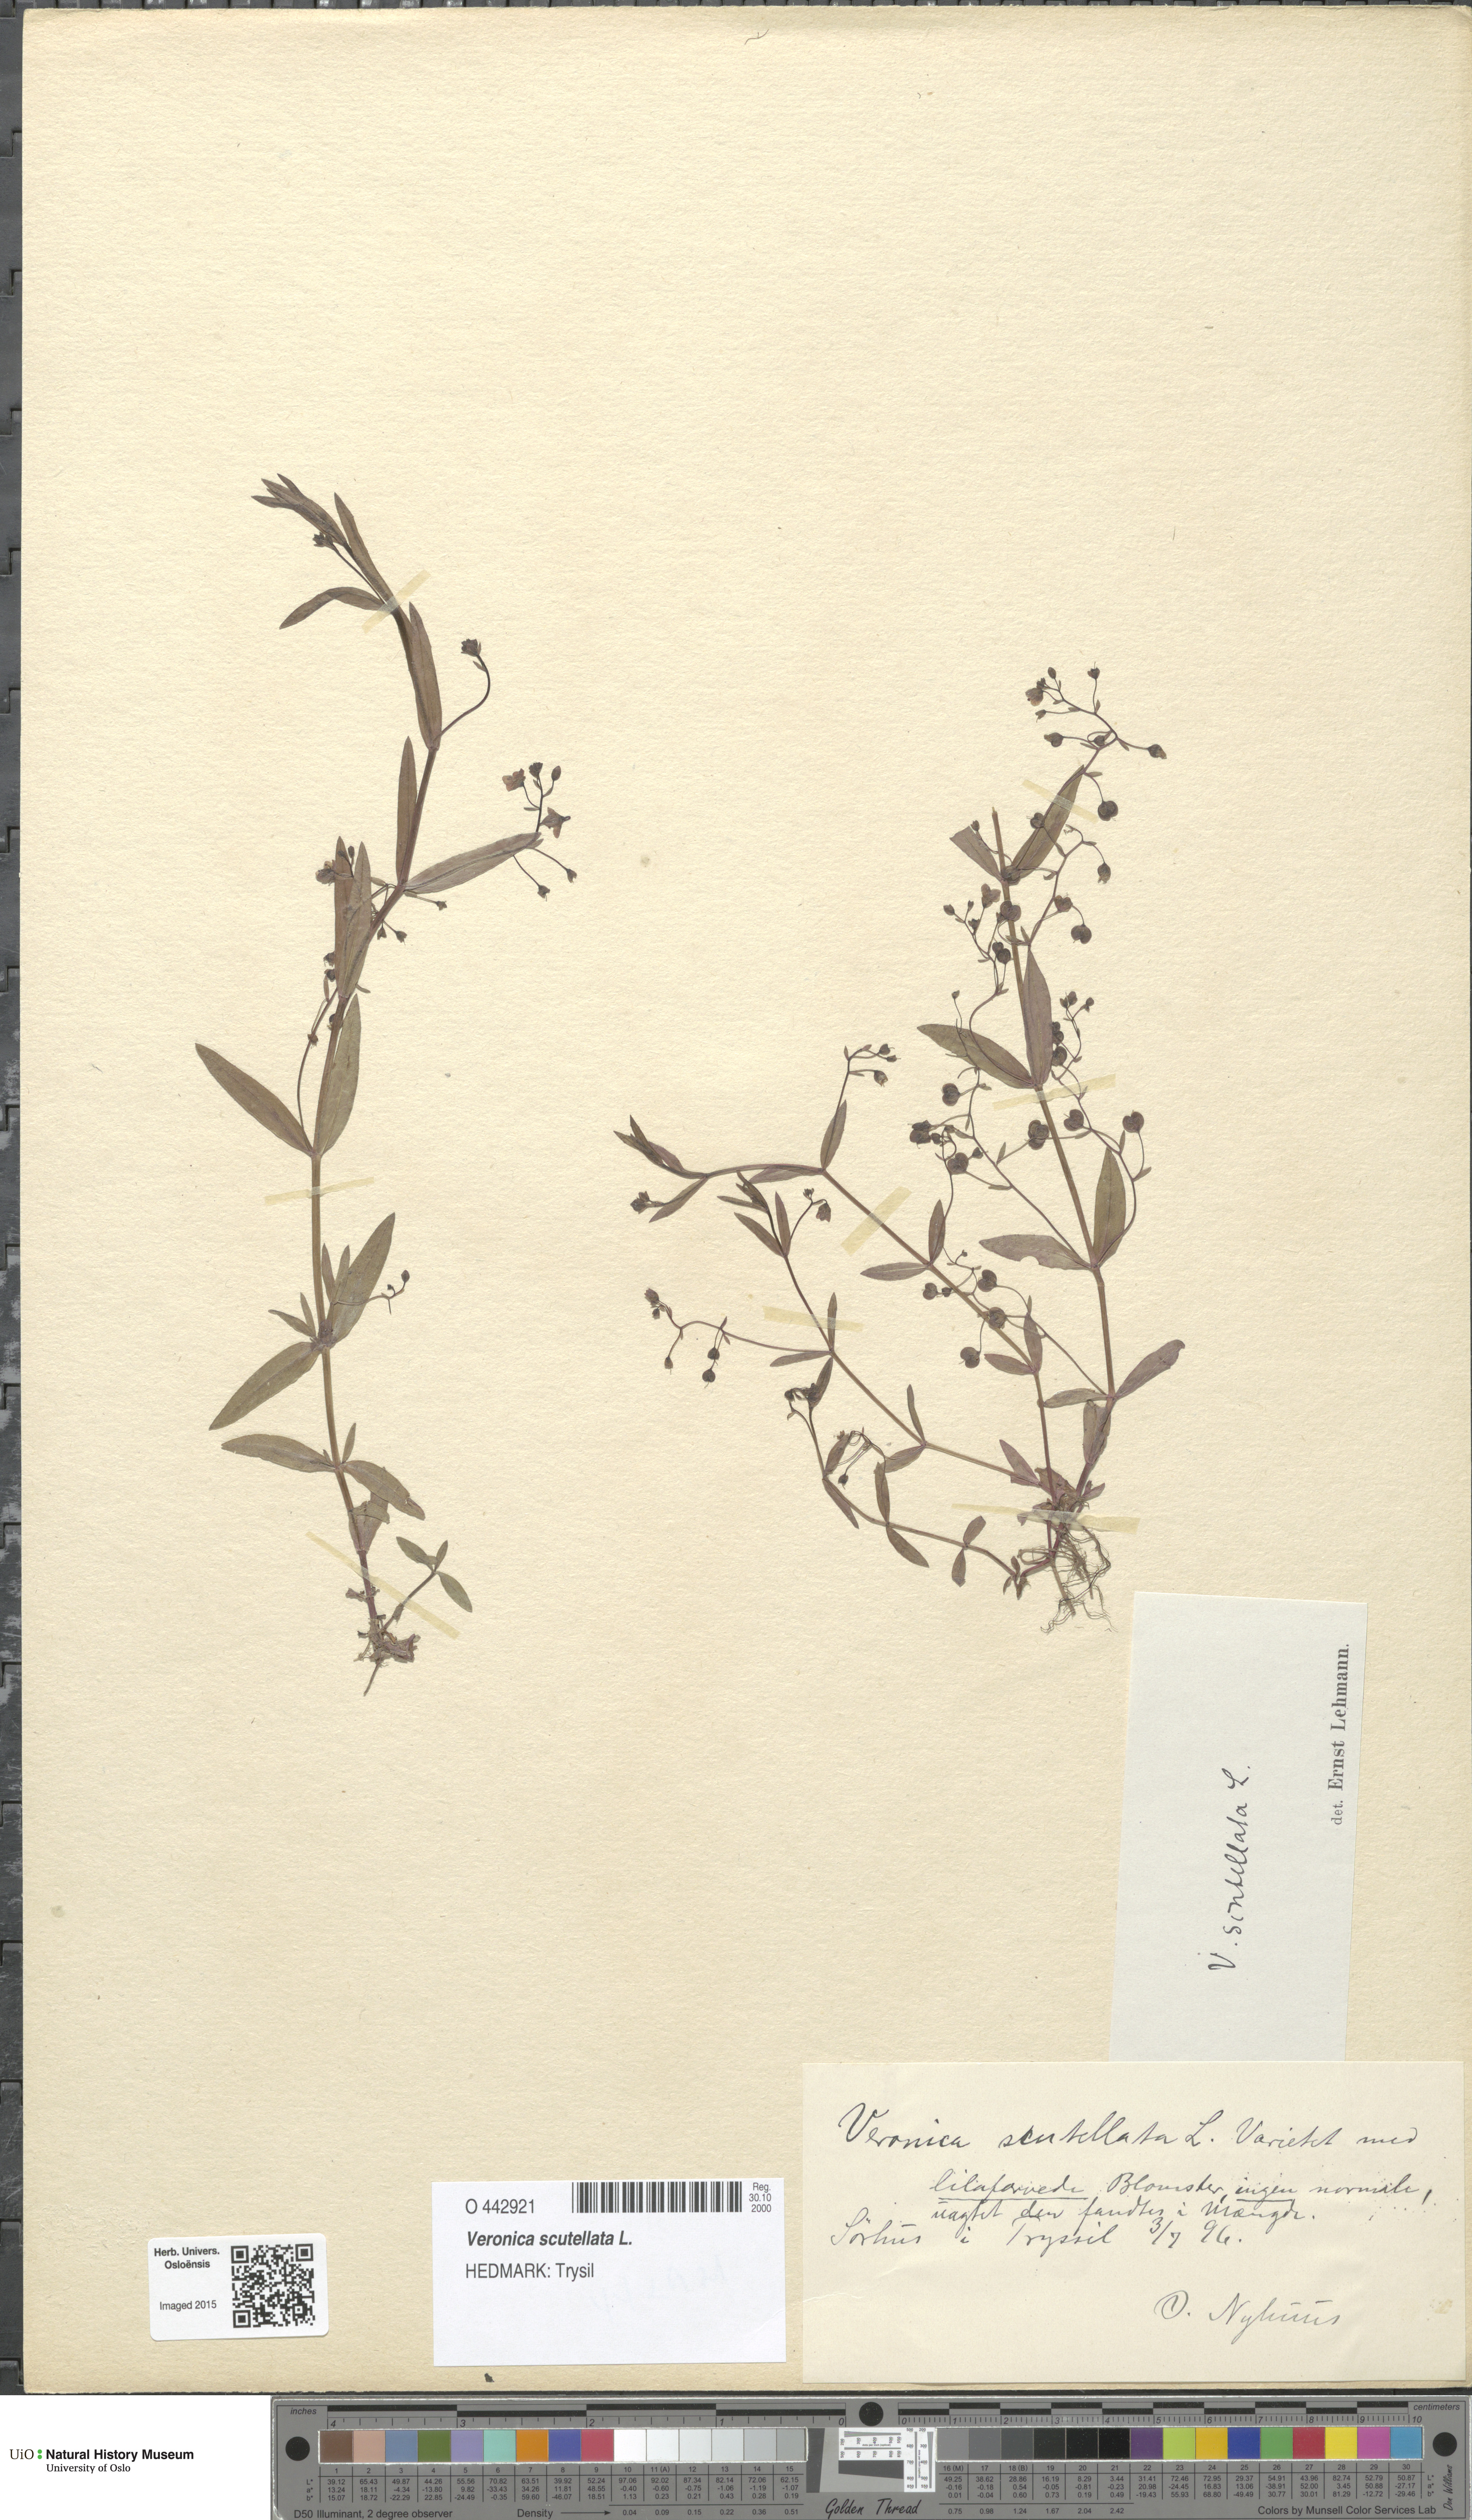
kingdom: Plantae
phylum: Tracheophyta
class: Magnoliopsida
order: Lamiales
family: Plantaginaceae
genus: Veronica
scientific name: Veronica scutellata
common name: Marsh speedwell
